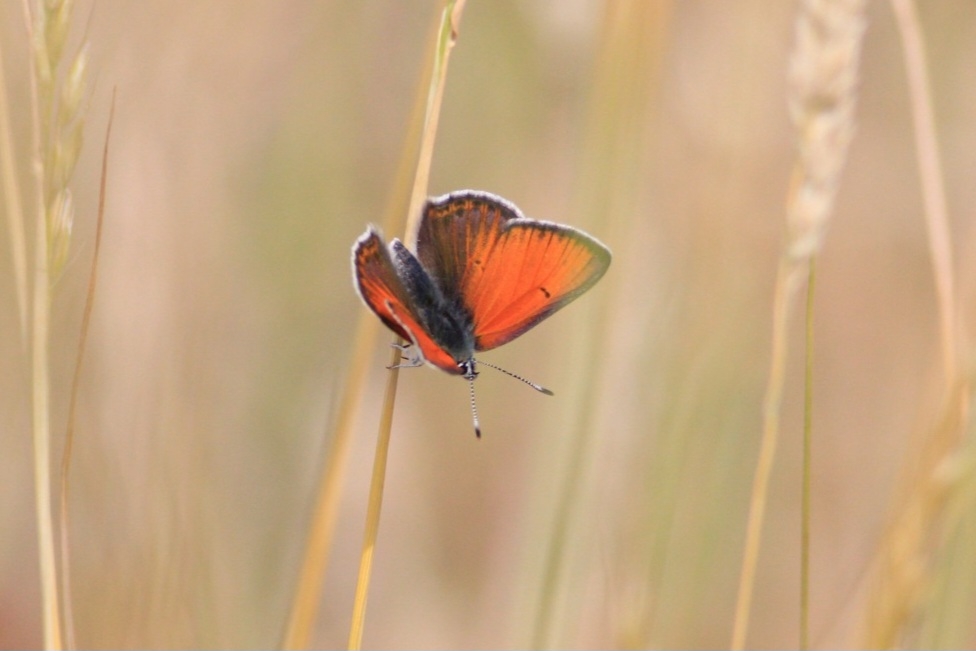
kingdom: Animalia
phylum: Arthropoda
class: Insecta
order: Lepidoptera
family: Lycaenidae
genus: Palaeochrysophanus
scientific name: Palaeochrysophanus hippothoe
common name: Violetrandet ildfugl
